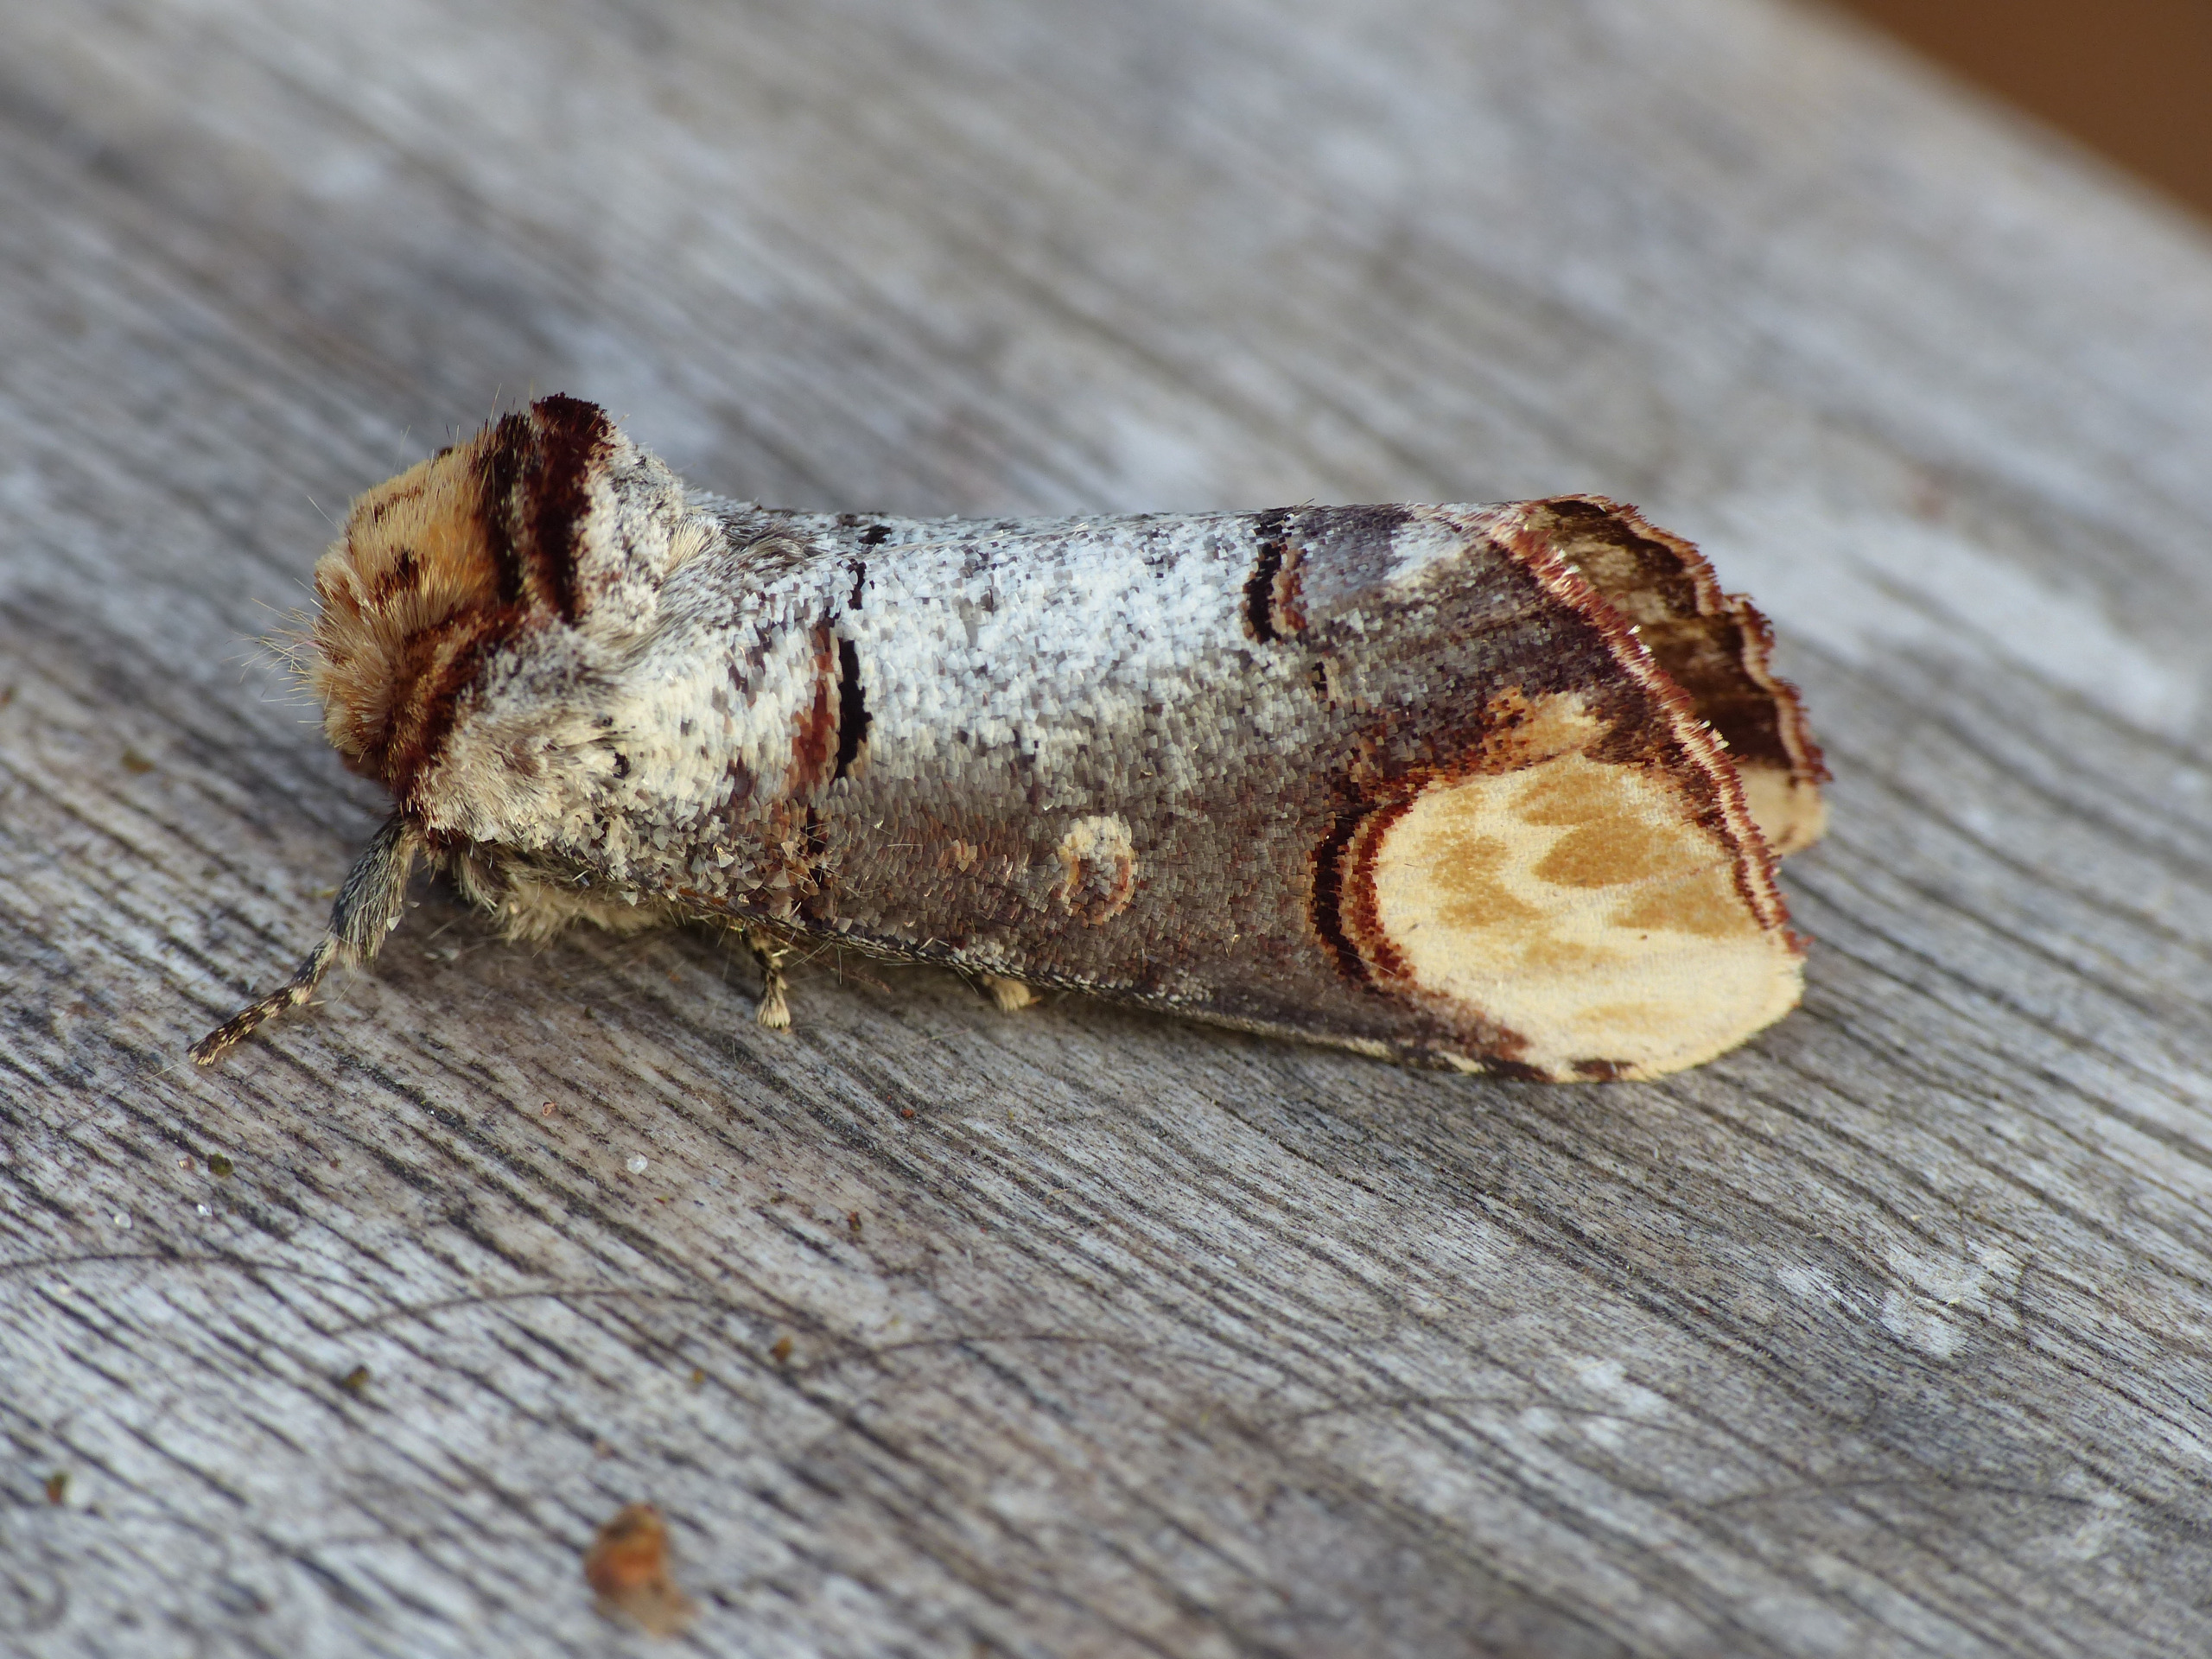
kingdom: Animalia
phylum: Arthropoda
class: Insecta
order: Lepidoptera
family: Notodontidae
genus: Phalera
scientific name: Phalera bucephala
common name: Måneplet
